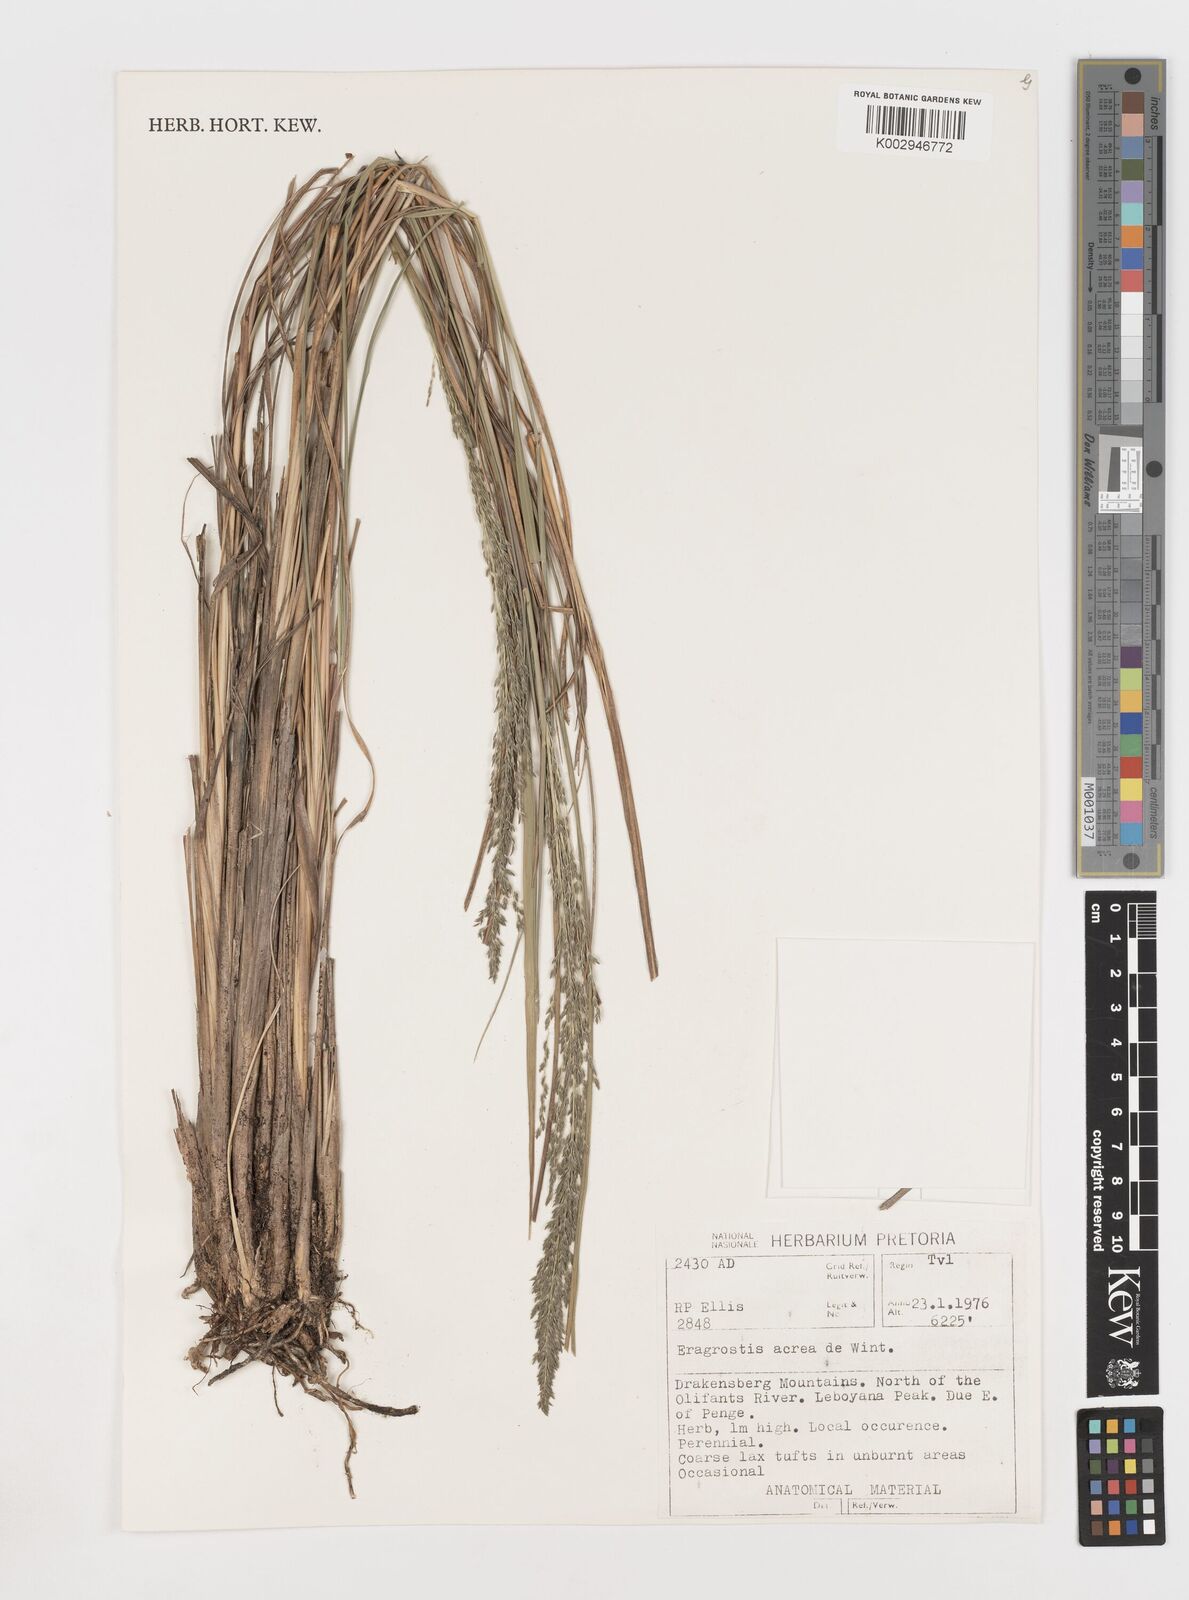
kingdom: Plantae
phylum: Tracheophyta
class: Liliopsida
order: Poales
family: Poaceae
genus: Eragrostis
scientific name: Eragrostis acraea
